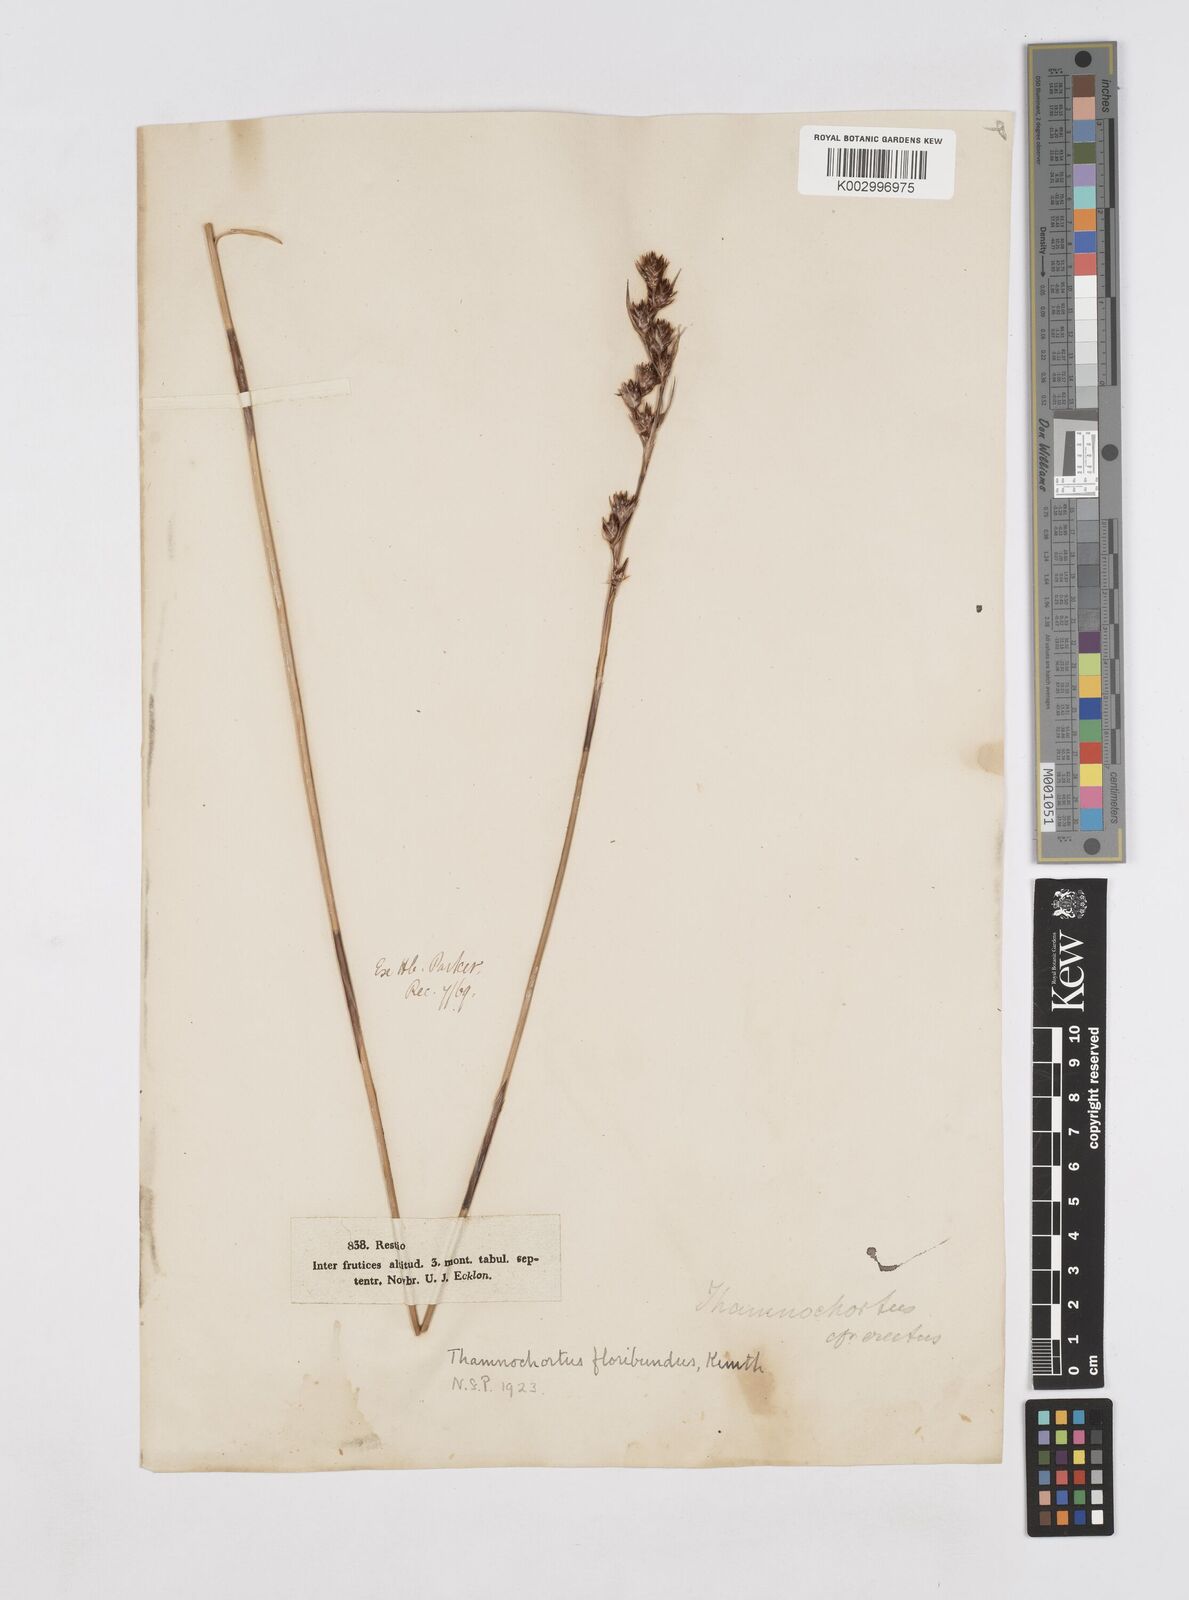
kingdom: Plantae
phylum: Tracheophyta
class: Liliopsida
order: Poales
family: Restionaceae
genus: Thamnochortus
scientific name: Thamnochortus erectus
